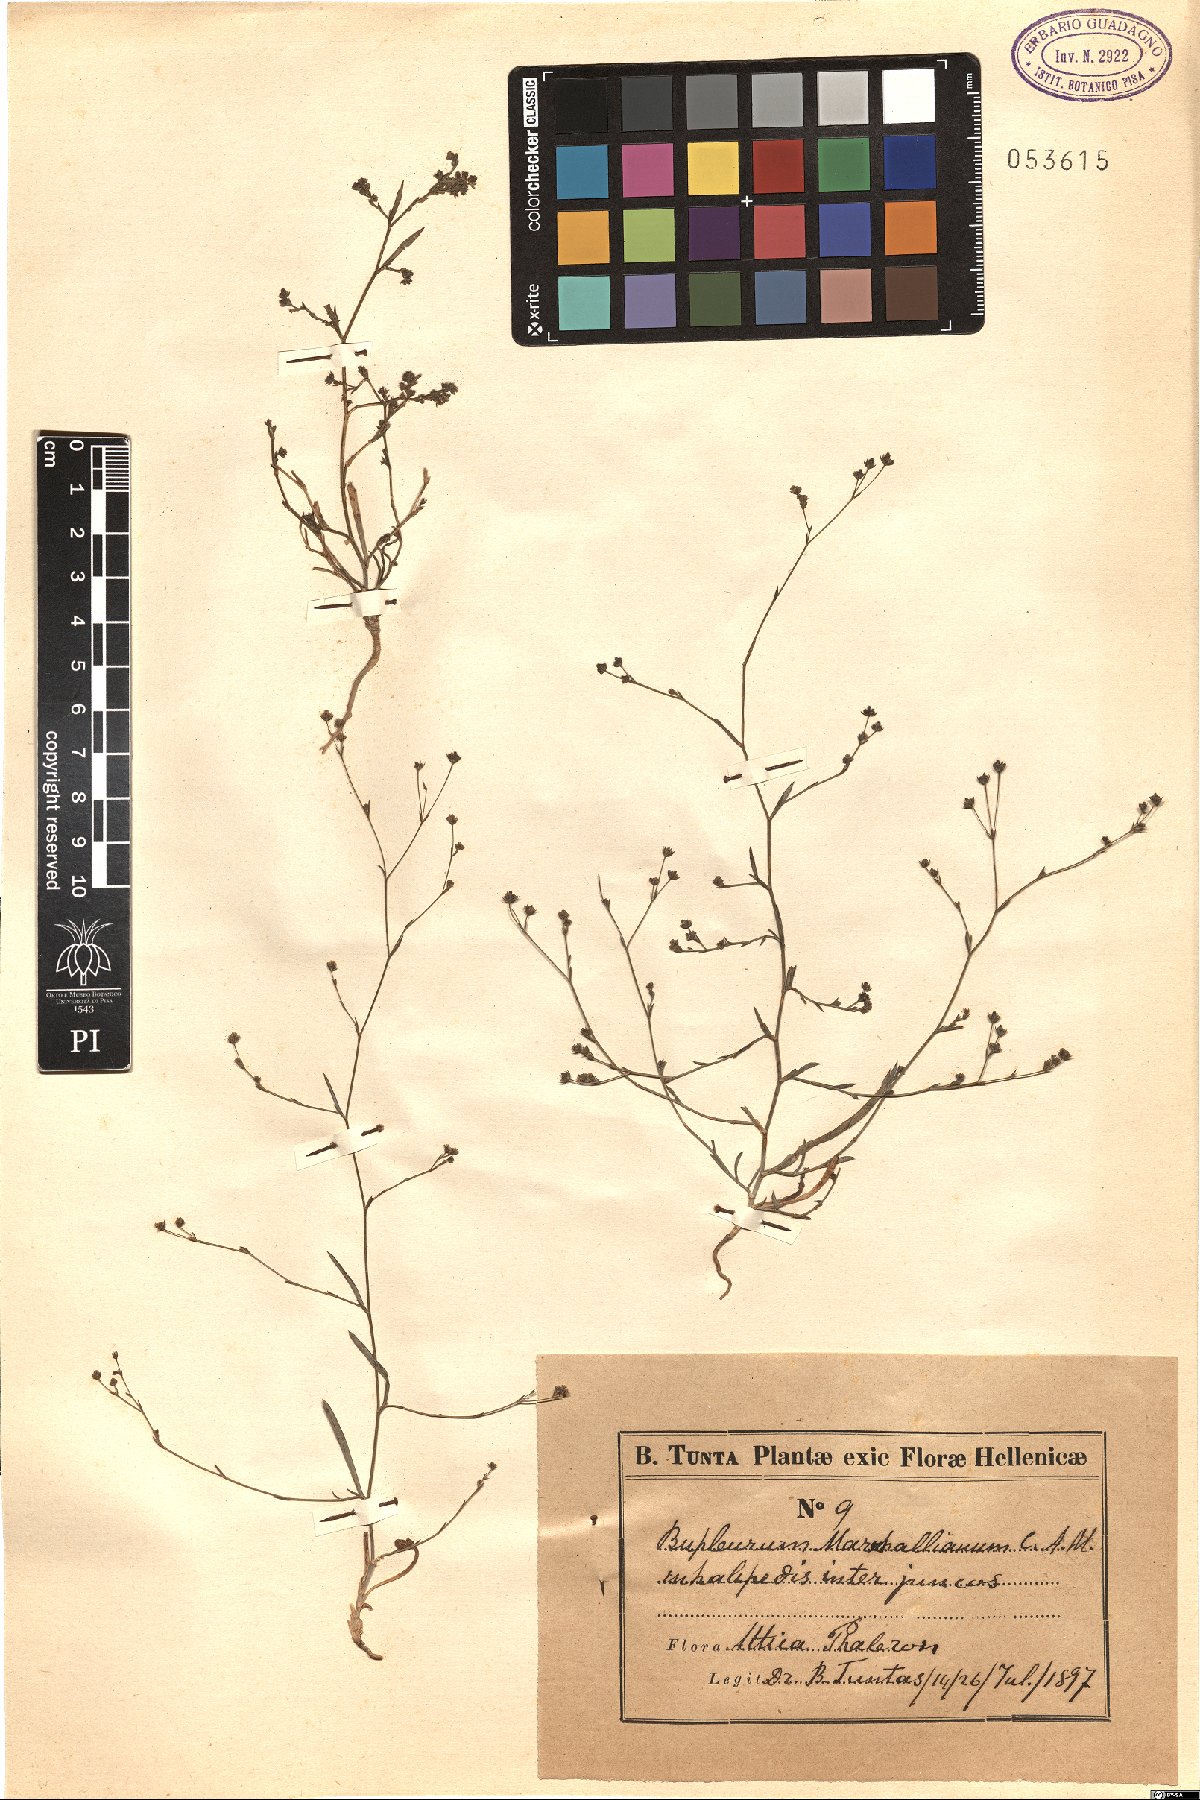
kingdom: Plantae
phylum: Tracheophyta
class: Magnoliopsida
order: Apiales
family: Apiaceae
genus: Bupleurum
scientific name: Bupleurum marschallianum
